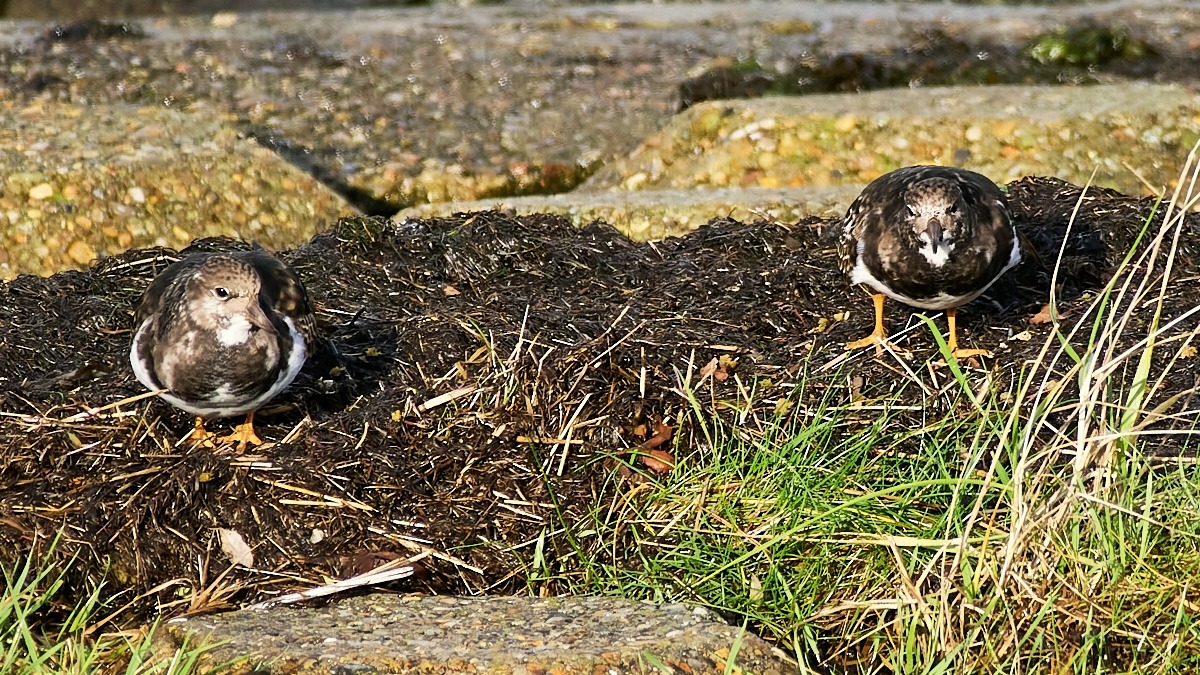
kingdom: Animalia
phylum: Chordata
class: Aves
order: Charadriiformes
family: Scolopacidae
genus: Arenaria
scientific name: Arenaria interpres
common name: Stenvender
